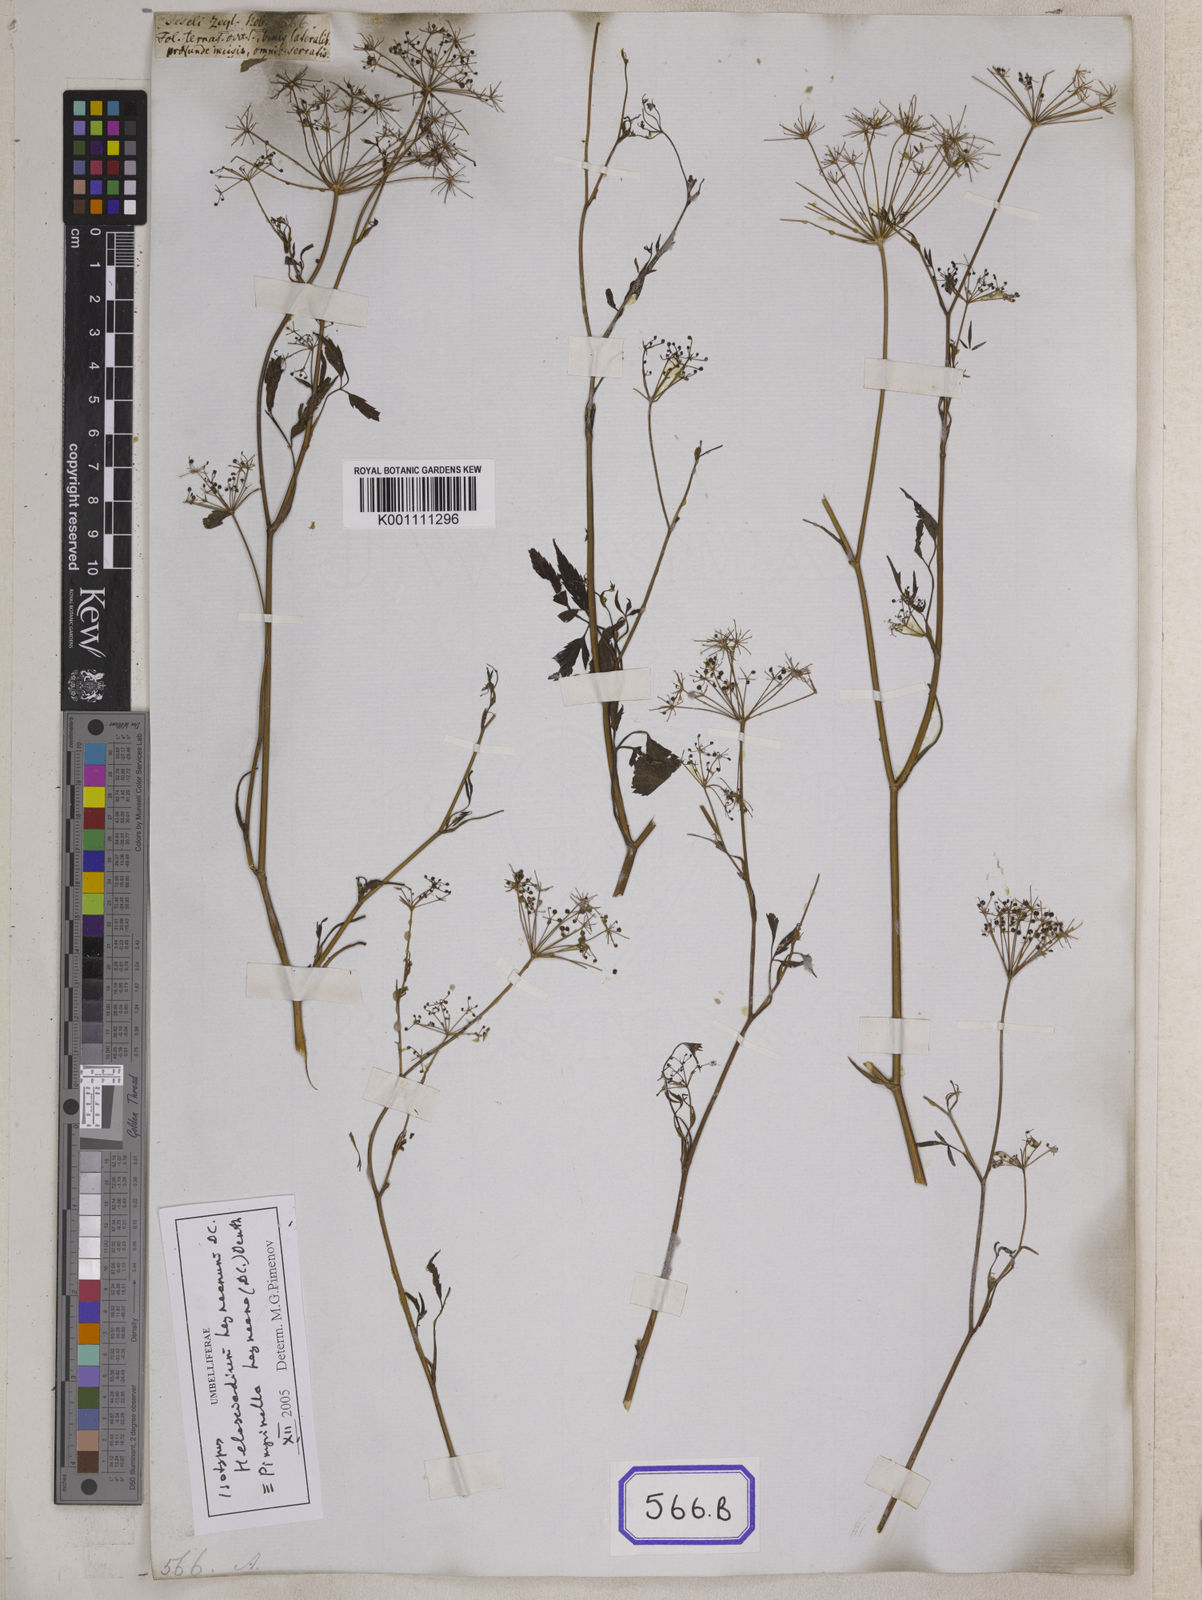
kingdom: Plantae
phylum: Tracheophyta
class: Magnoliopsida
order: Apiales
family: Apiaceae
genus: Pimpinella
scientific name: Pimpinella
